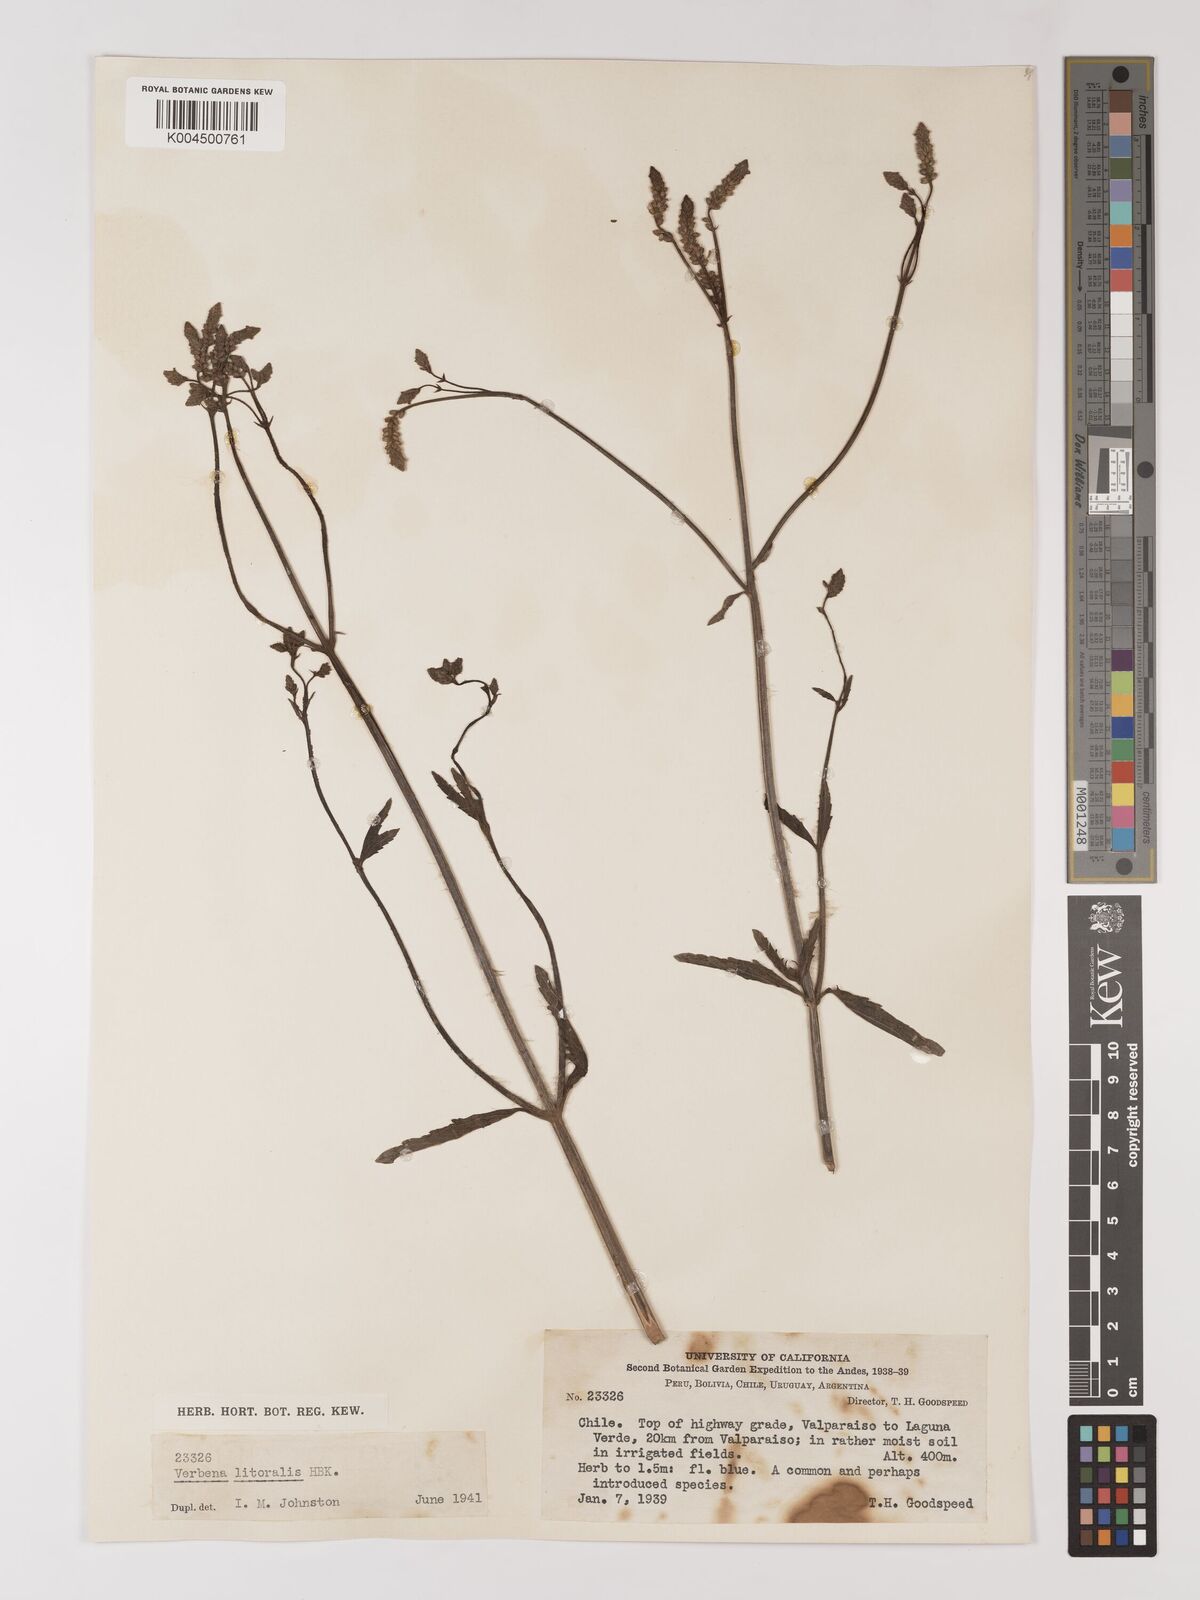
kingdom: Plantae
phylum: Tracheophyta
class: Magnoliopsida
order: Lamiales
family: Verbenaceae
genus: Verbena
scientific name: Verbena litoralis
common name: Seashore vervain
